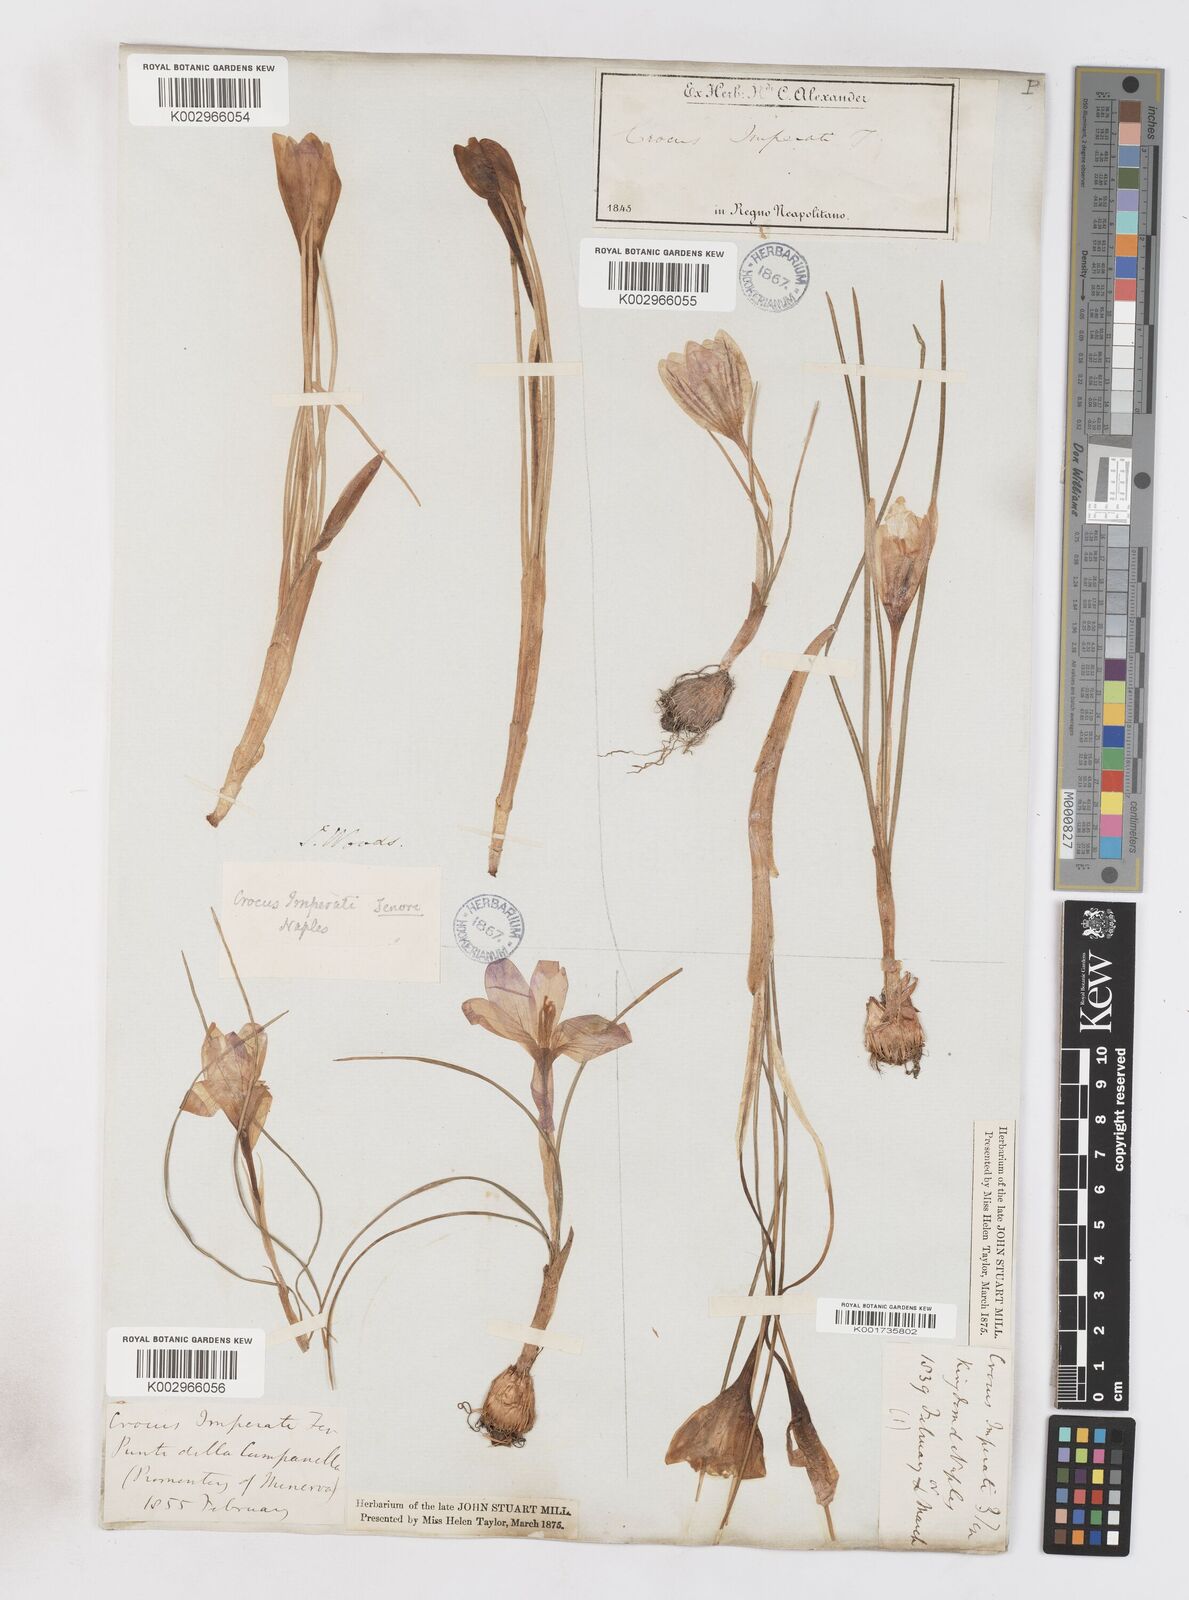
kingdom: Plantae
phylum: Tracheophyta
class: Liliopsida
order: Asparagales
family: Iridaceae
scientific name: Iridaceae
